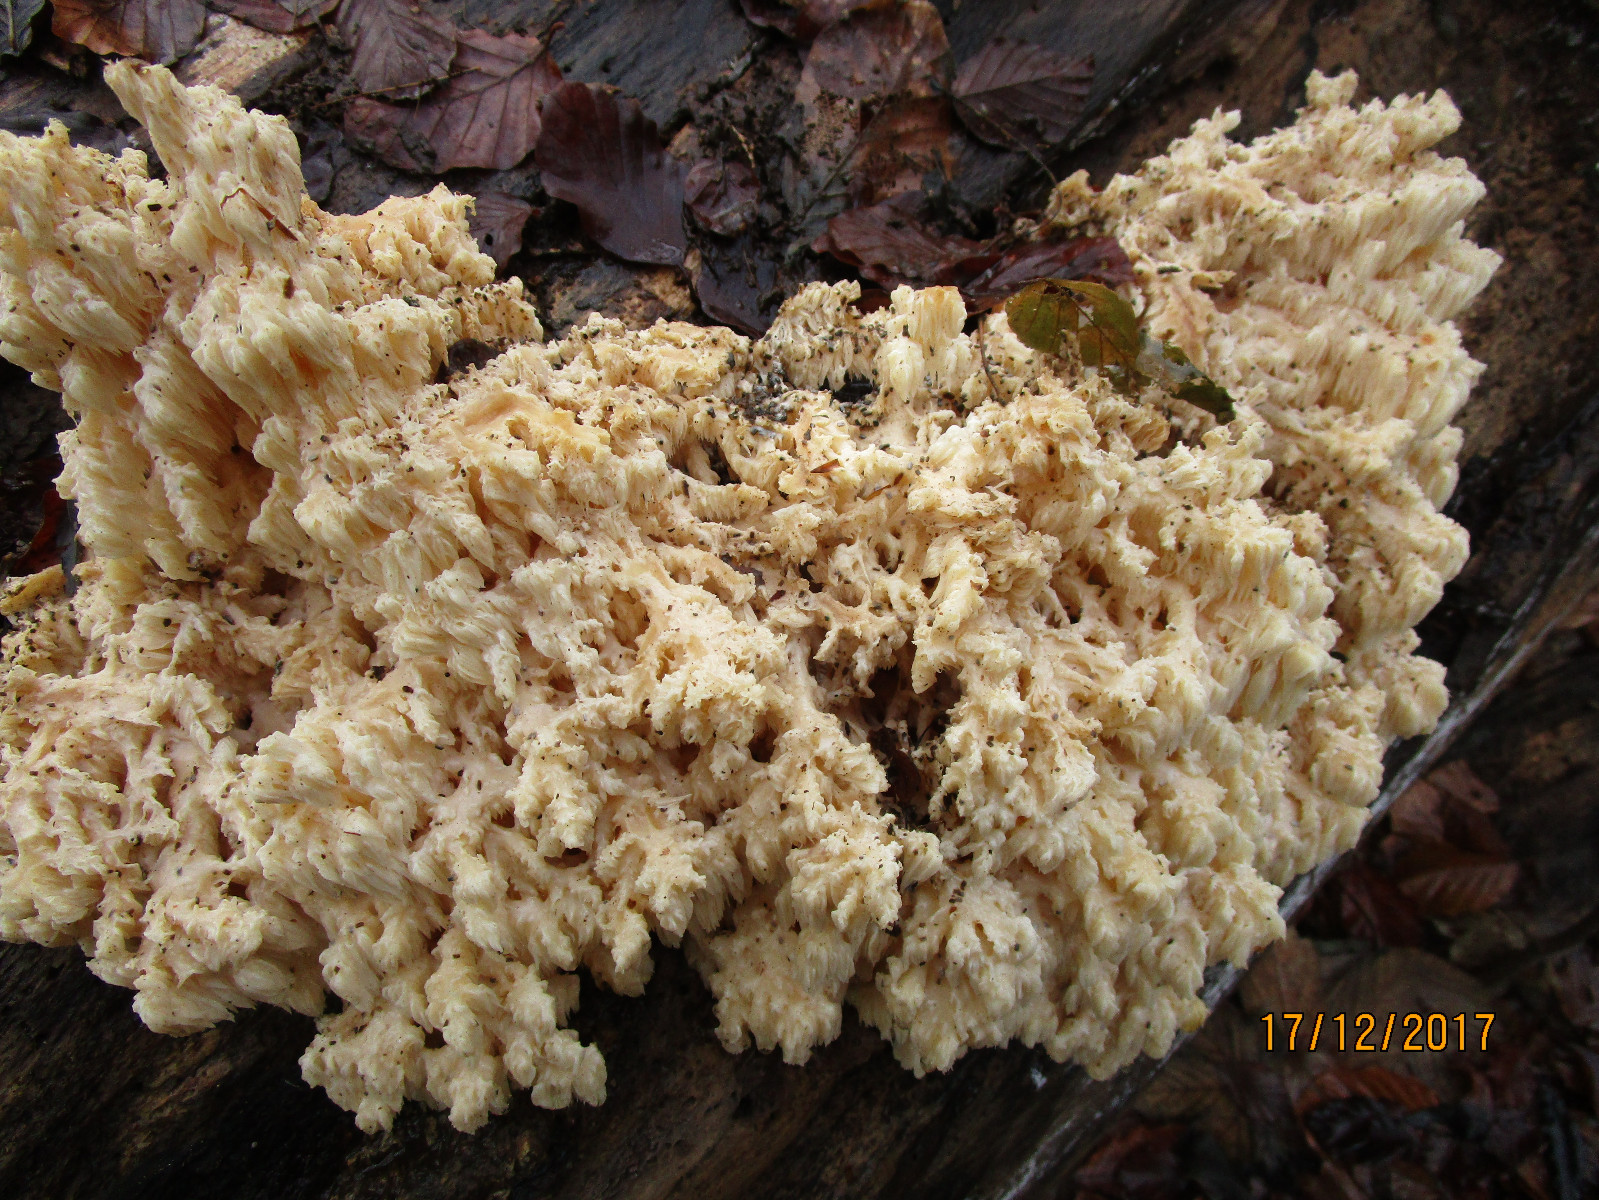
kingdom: Fungi
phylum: Basidiomycota
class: Agaricomycetes
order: Russulales
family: Hericiaceae
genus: Hericium
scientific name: Hericium coralloides
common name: koralpigsvamp
